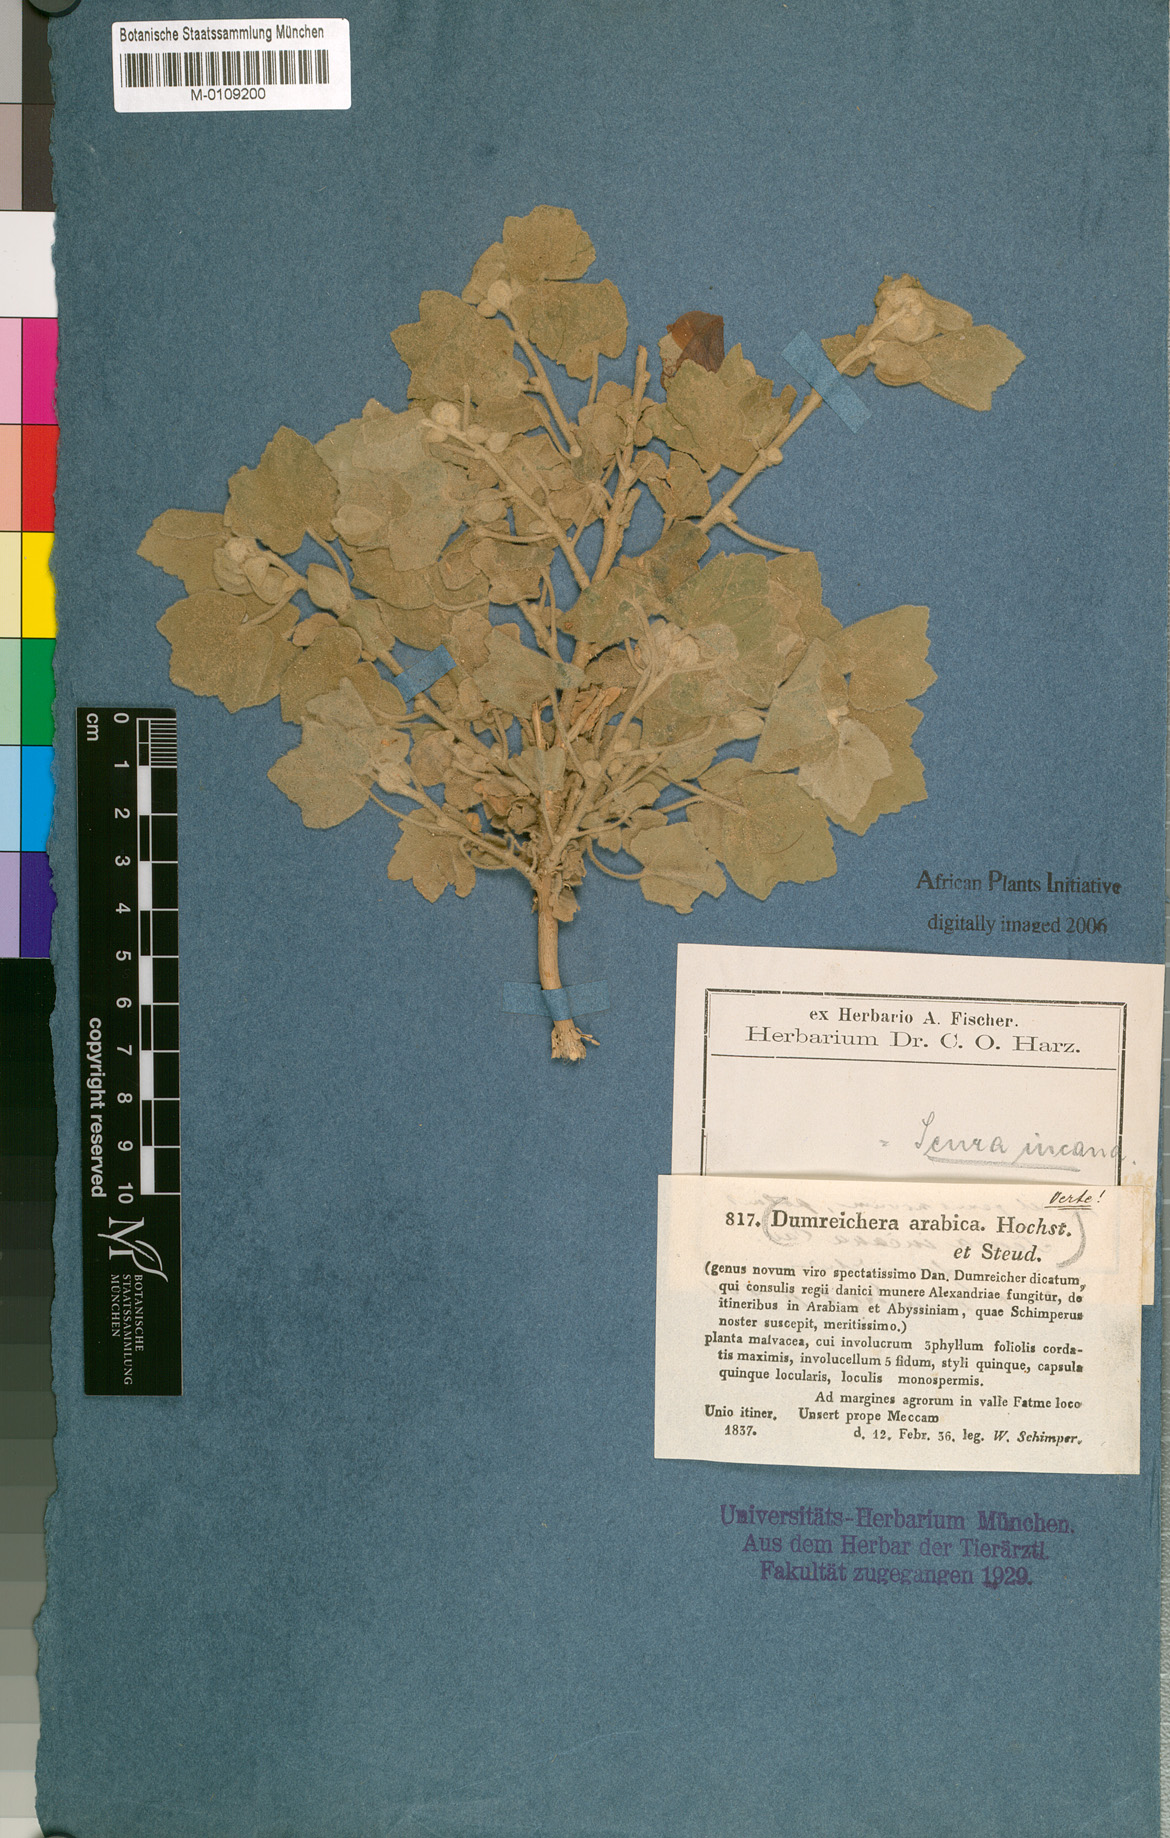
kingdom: Plantae
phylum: Tracheophyta
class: Magnoliopsida
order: Malvales
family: Malvaceae
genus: Senra
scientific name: Senra incana
